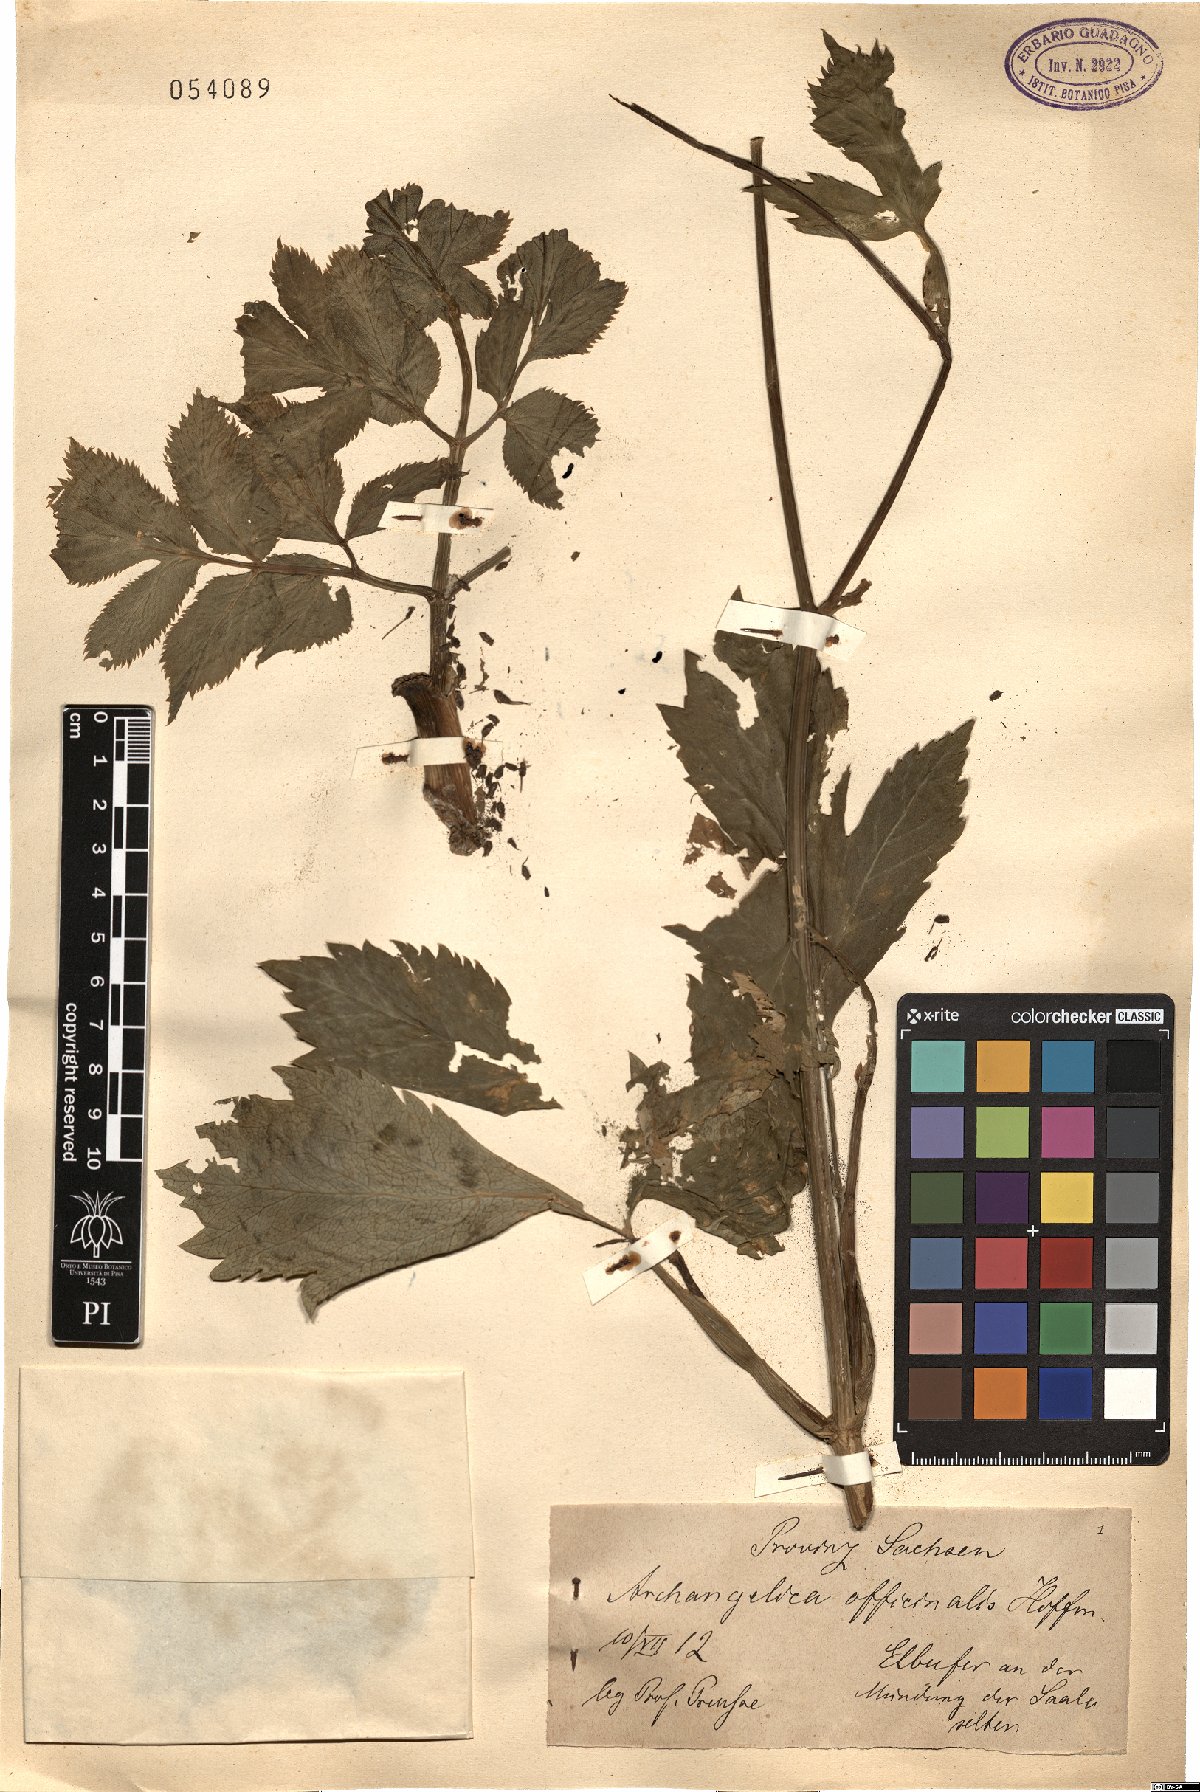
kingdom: Plantae
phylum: Tracheophyta
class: Magnoliopsida
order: Apiales
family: Apiaceae
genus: Angelica
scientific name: Angelica archangelica
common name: Garden angelica
